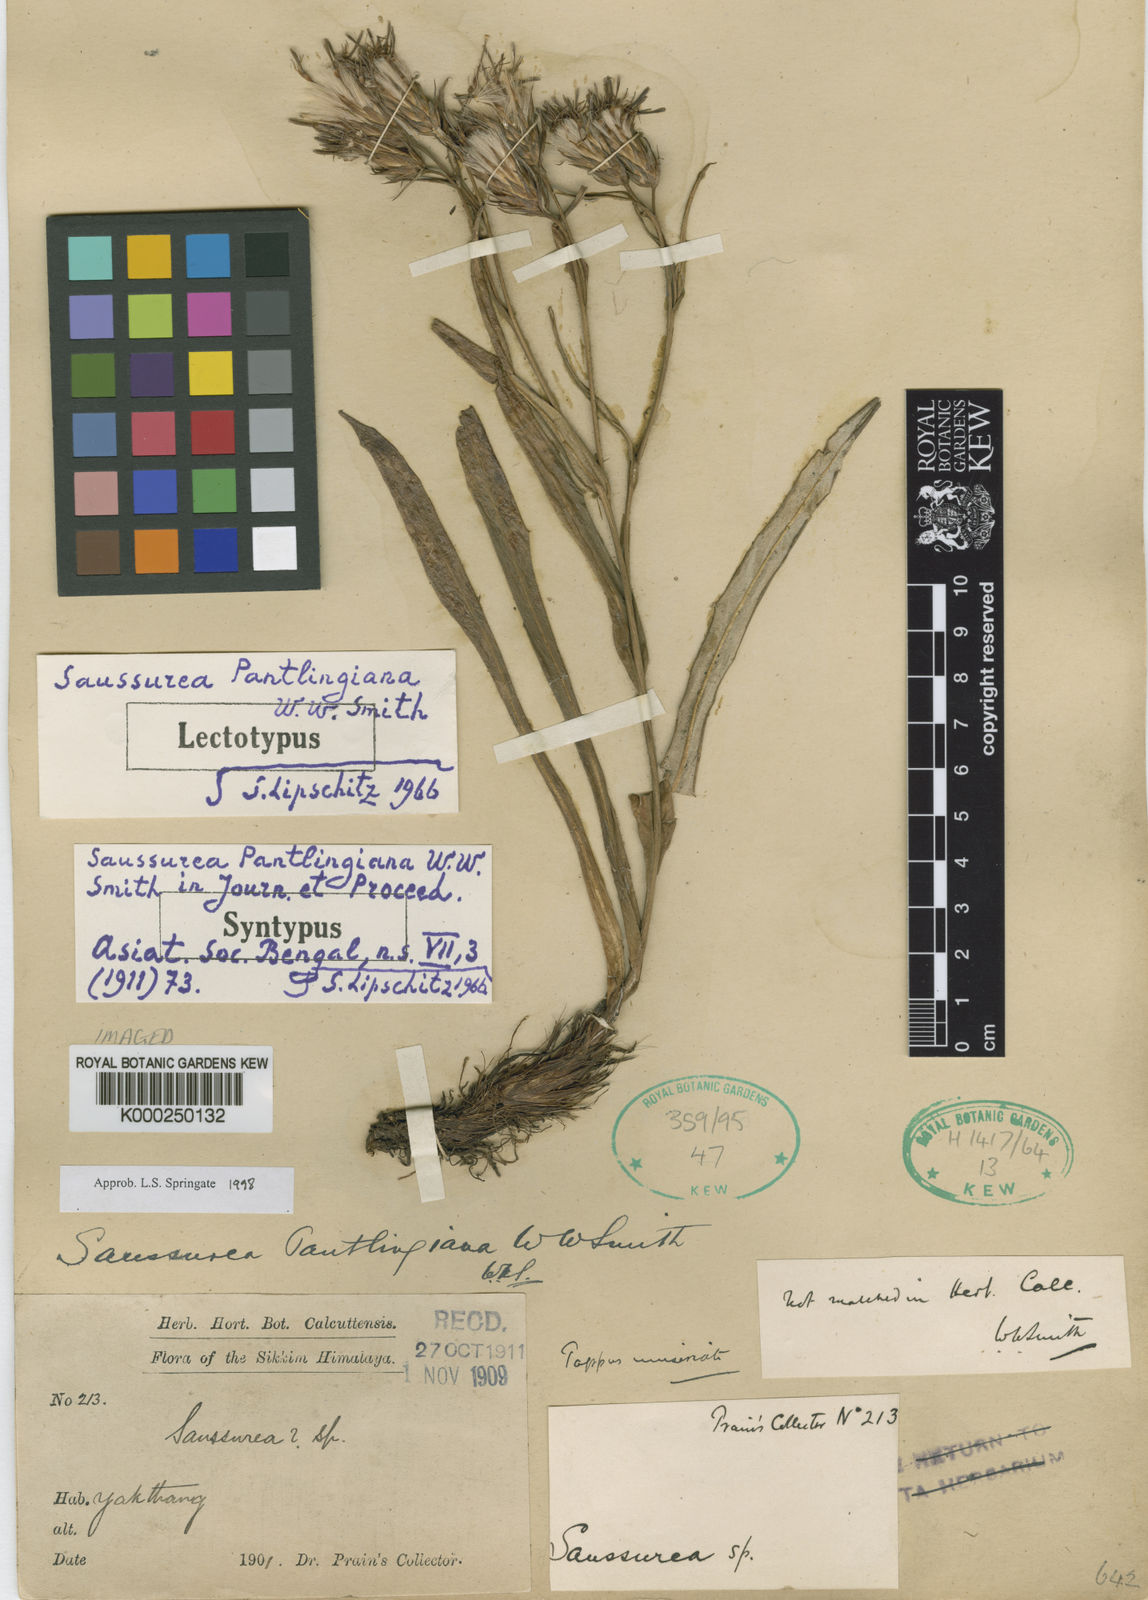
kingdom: Plantae
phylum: Tracheophyta
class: Magnoliopsida
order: Asterales
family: Asteraceae
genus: Saussurea
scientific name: Saussurea pantlingiana
